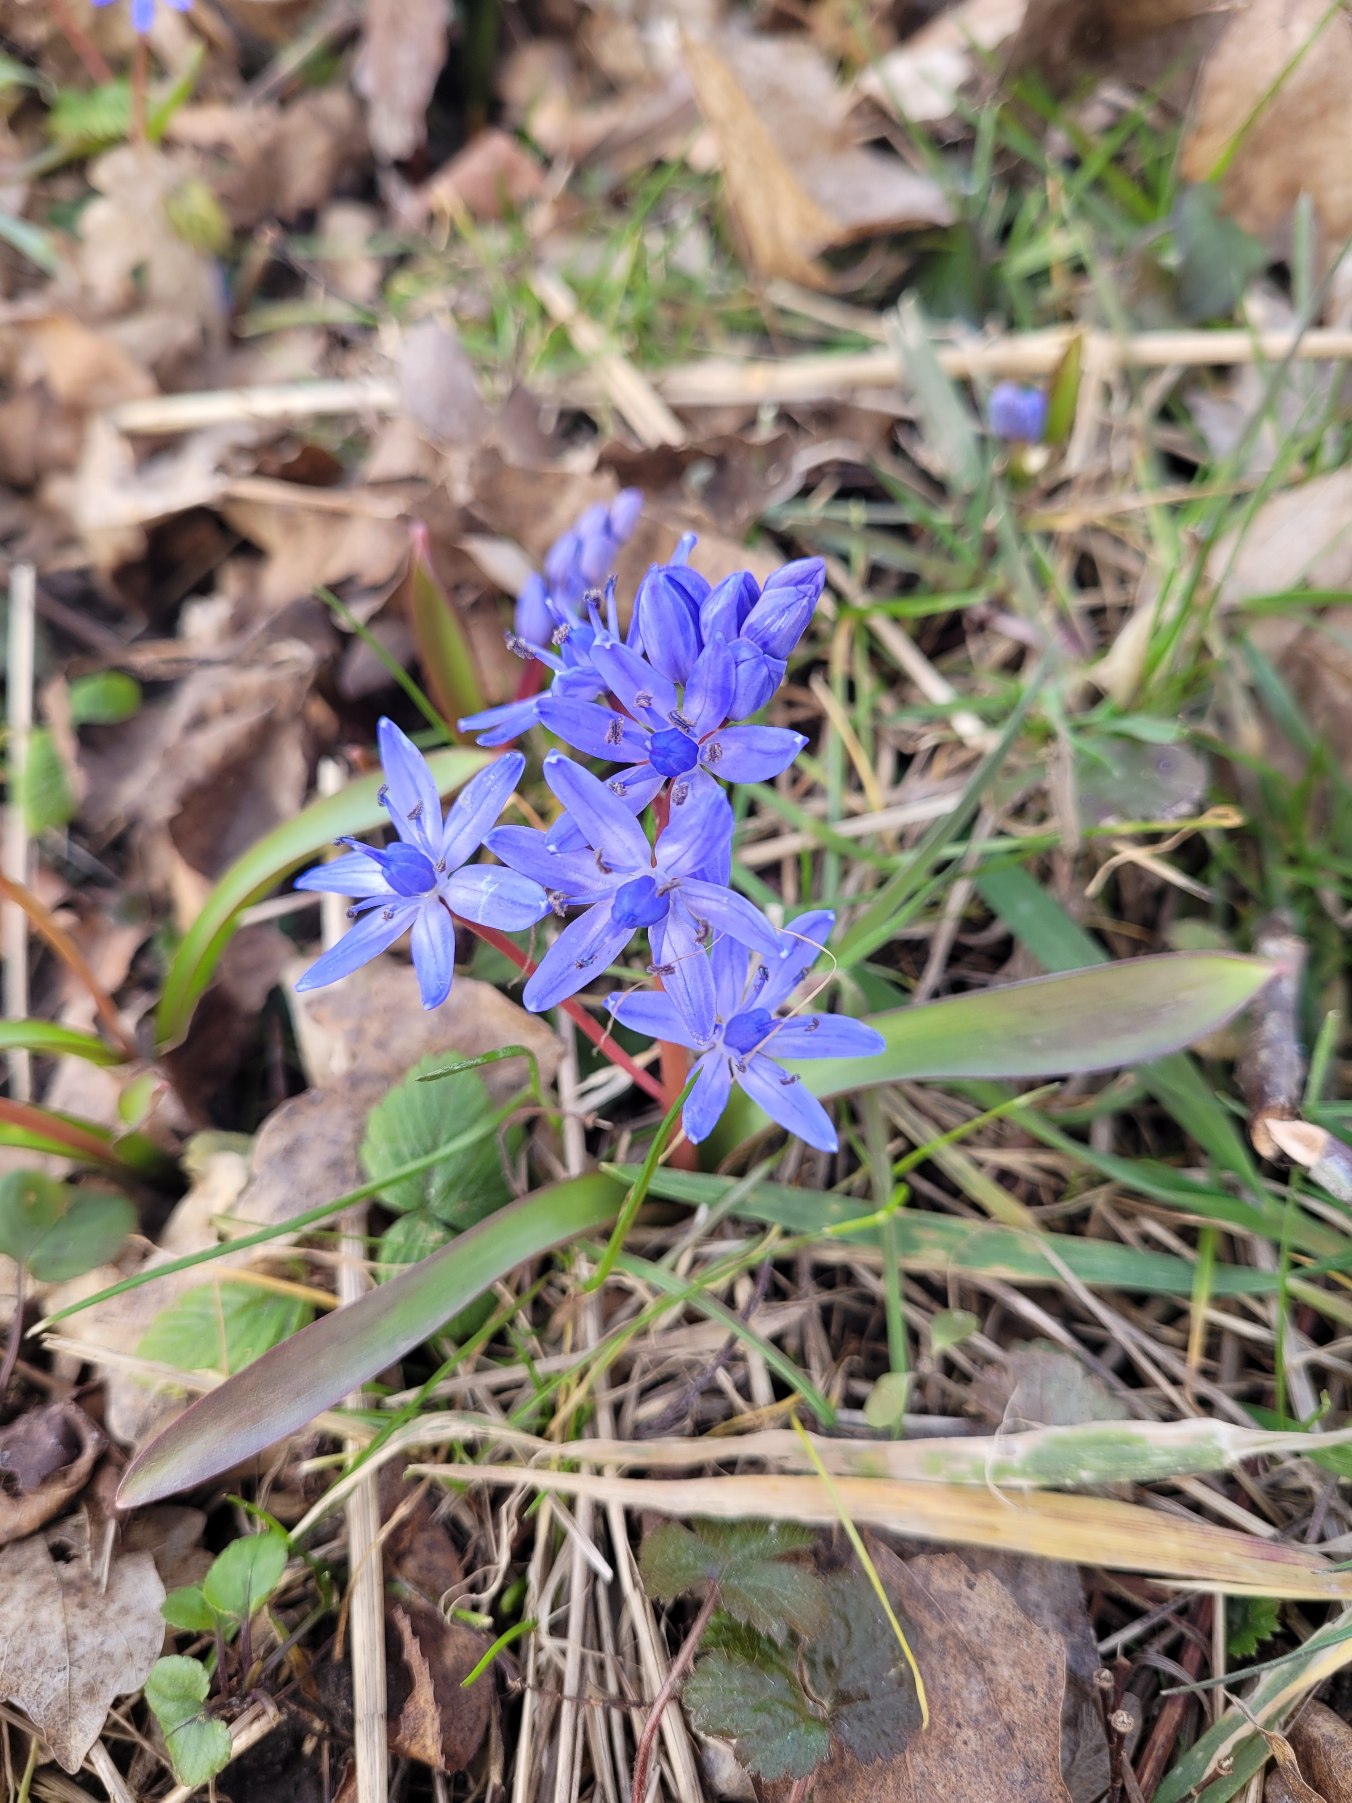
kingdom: Plantae
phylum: Tracheophyta
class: Liliopsida
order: Asparagales
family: Asparagaceae
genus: Scilla
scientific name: Scilla bifolia
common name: Tobladet skilla
